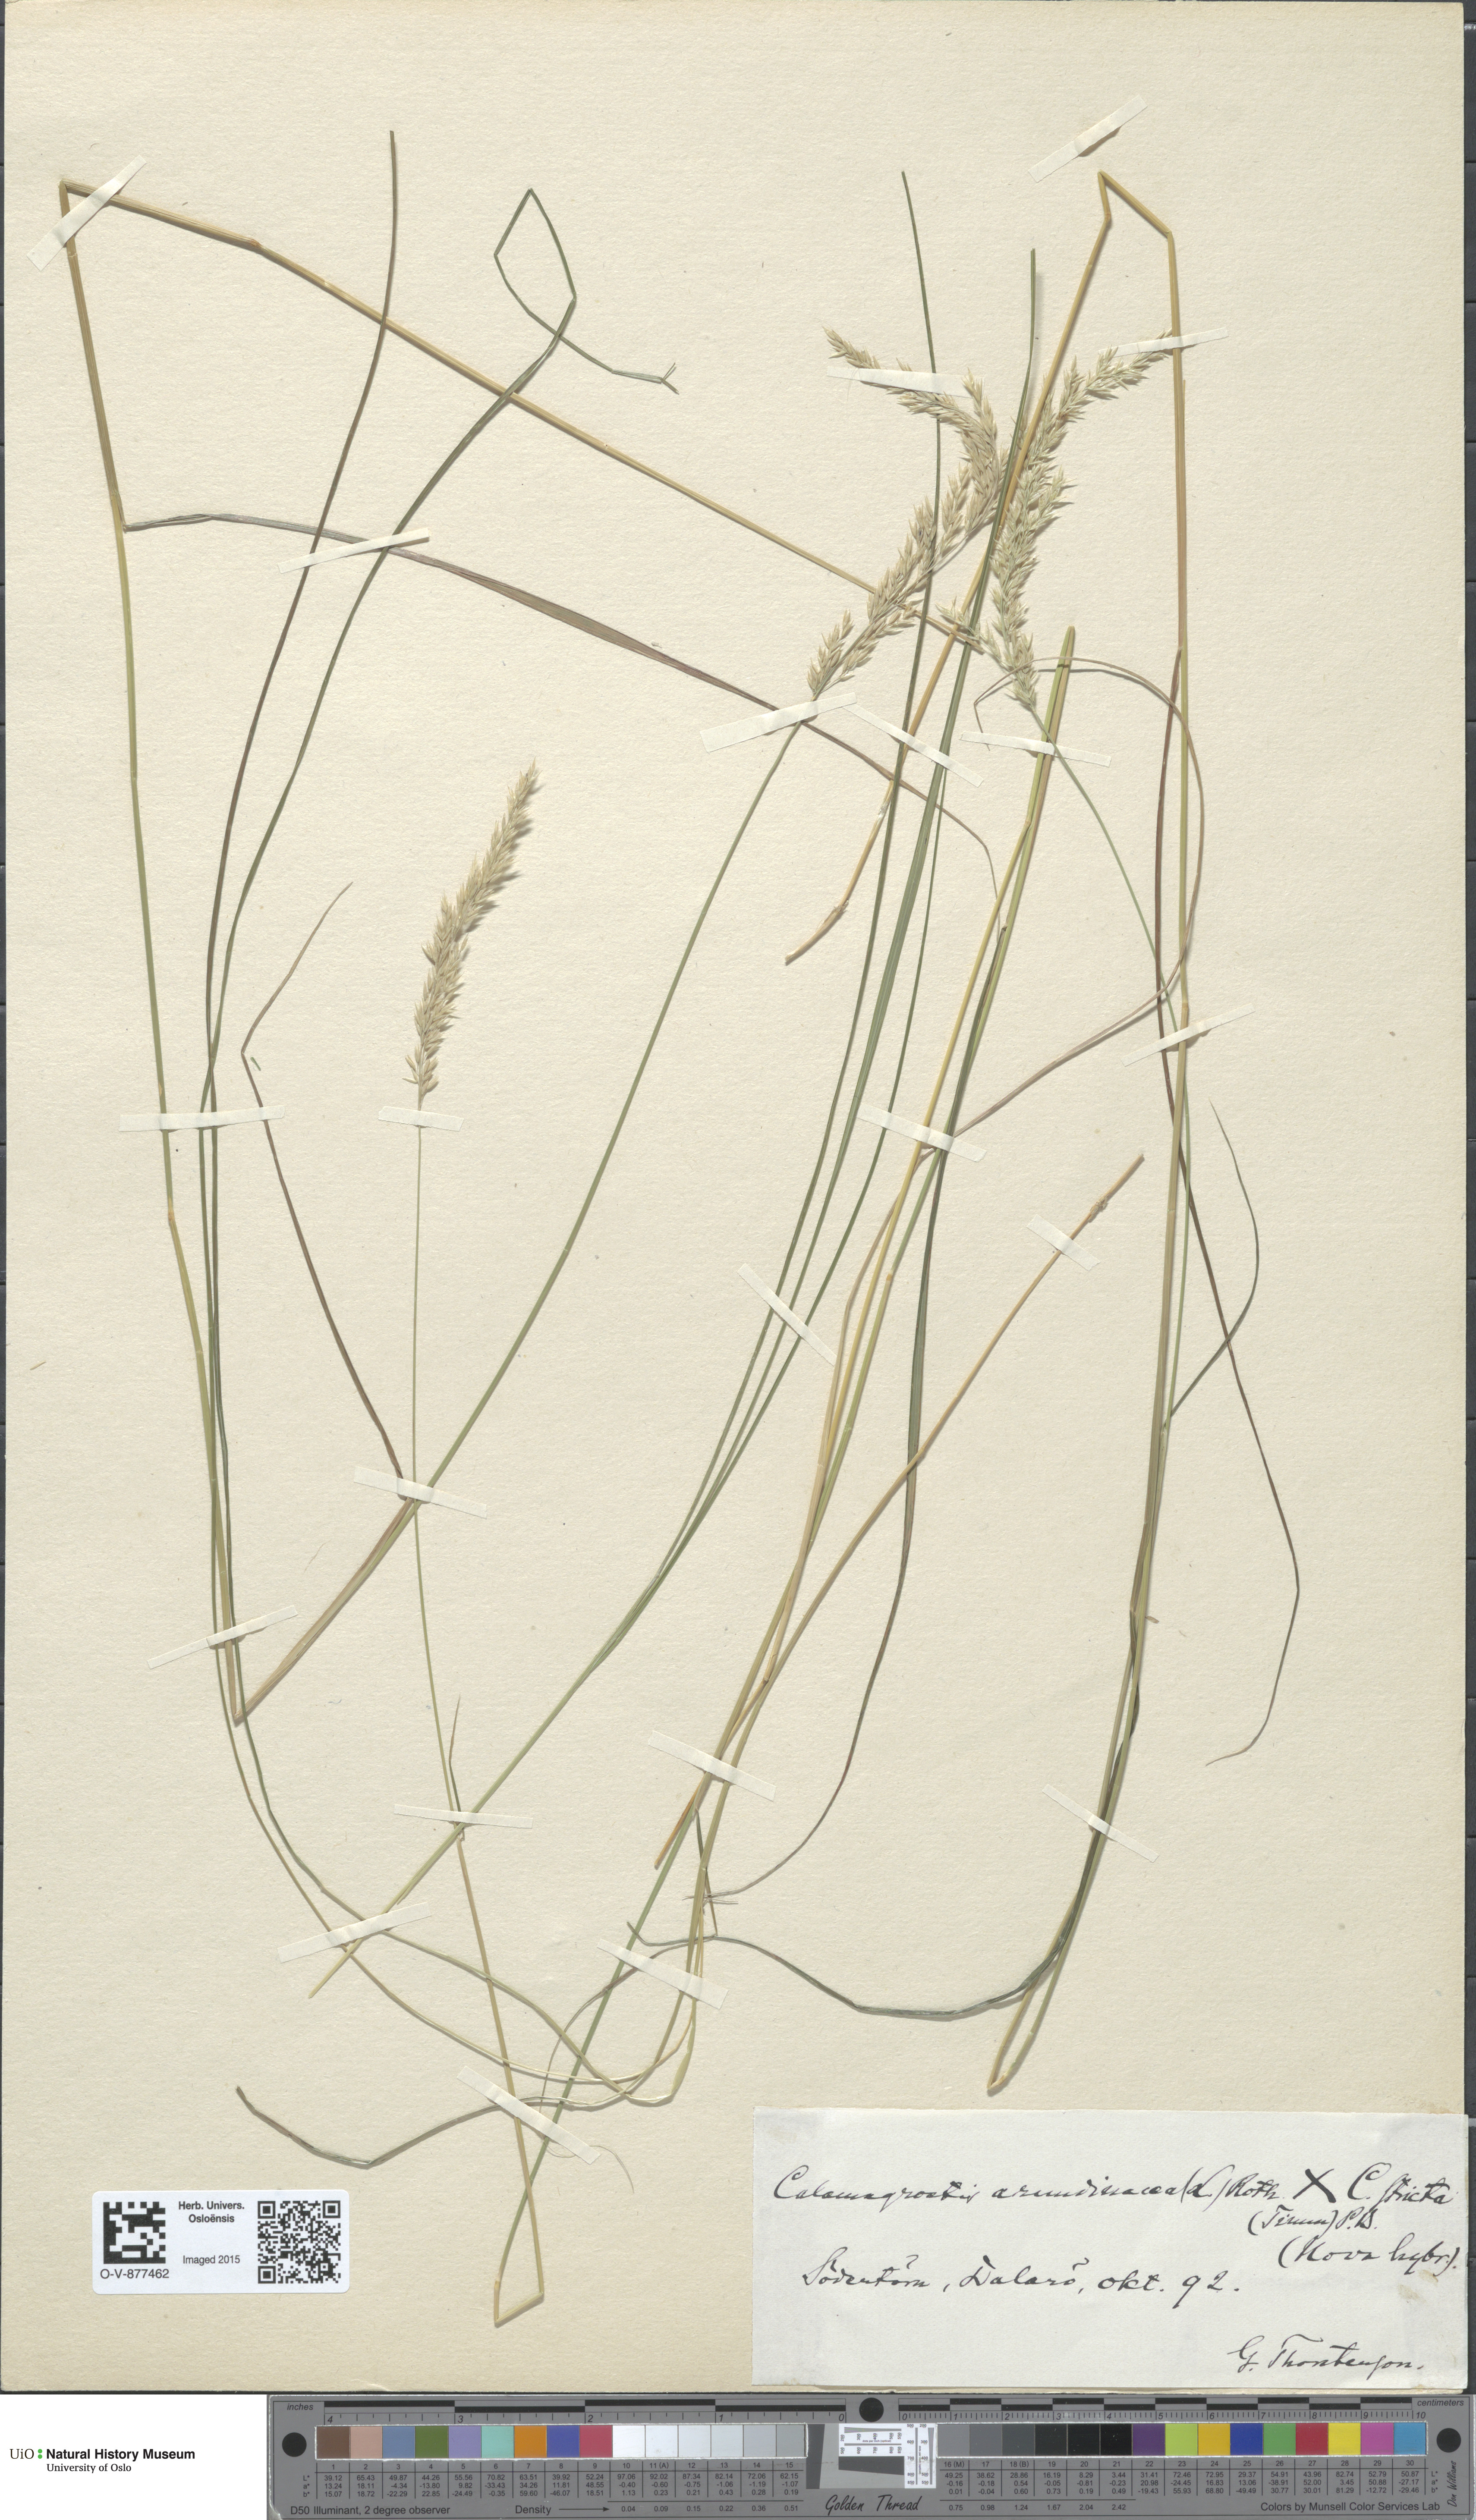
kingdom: Plantae
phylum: Tracheophyta
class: Liliopsida
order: Poales
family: Poaceae
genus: Calamagrostis
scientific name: Calamagrostis
